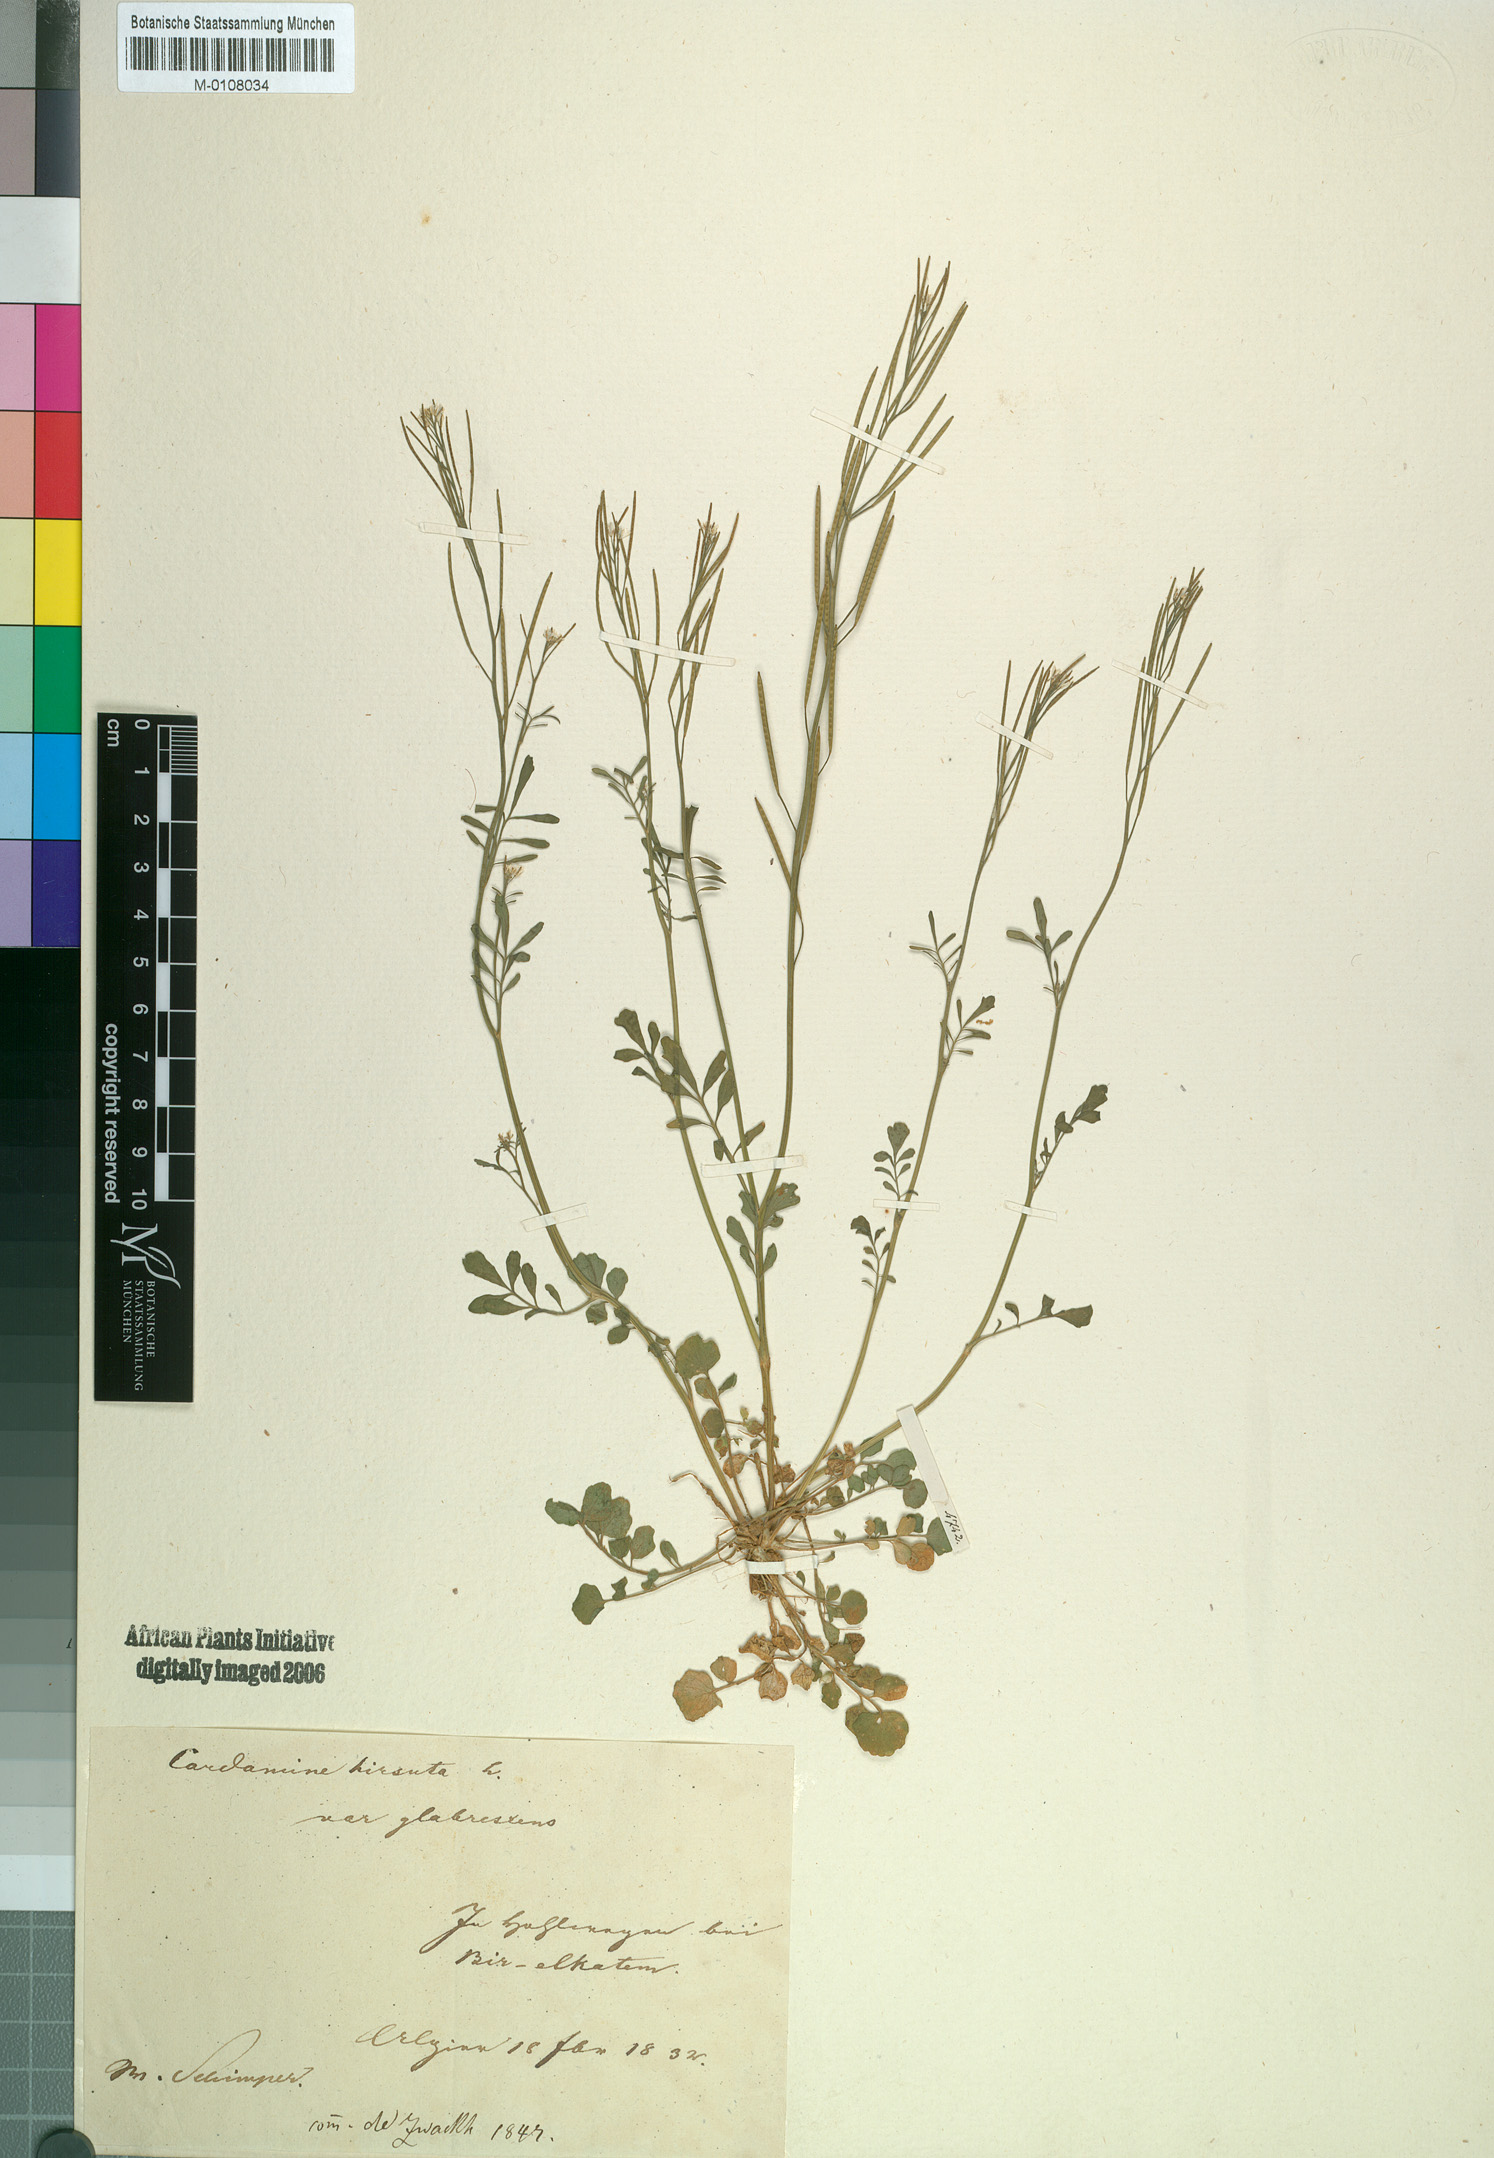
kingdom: Plantae
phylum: Tracheophyta
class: Magnoliopsida
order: Brassicales
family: Brassicaceae
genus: Cardamine
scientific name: Cardamine hirsuta
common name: Hairy bittercress
